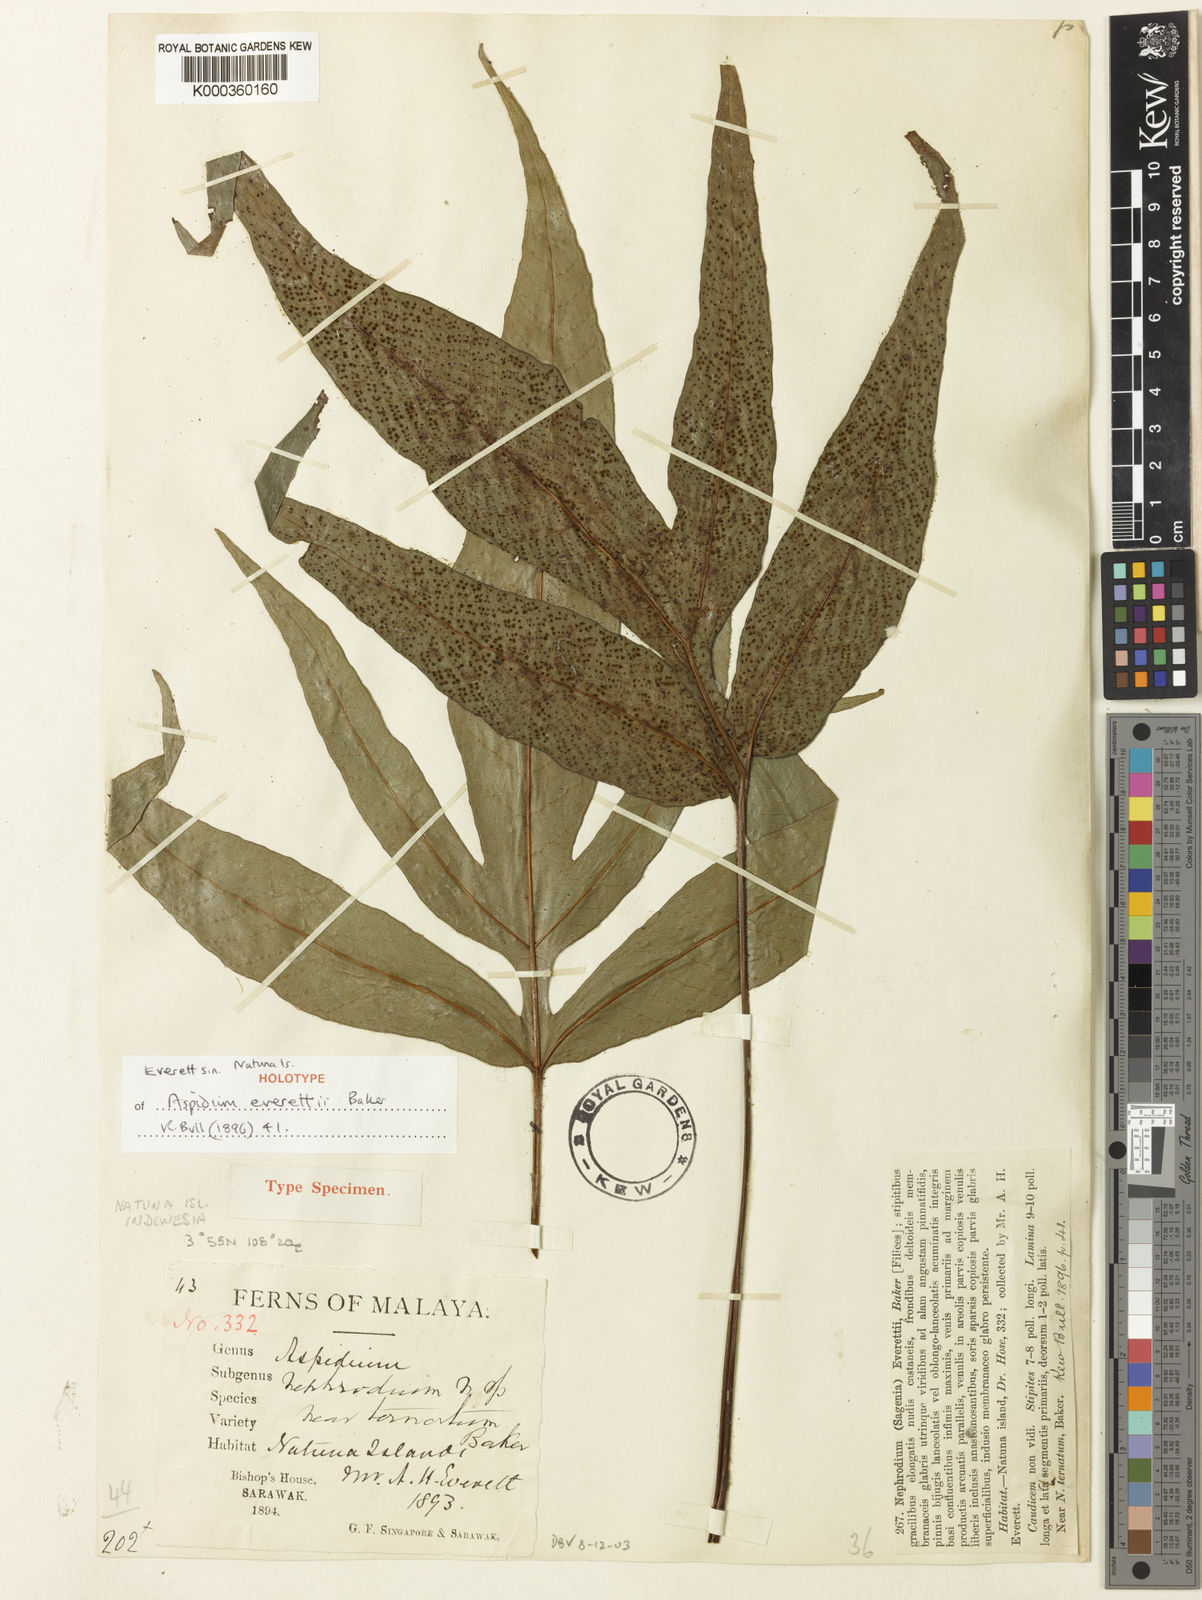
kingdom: Plantae
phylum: Tracheophyta
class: Polypodiopsida
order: Polypodiales
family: Tectariaceae
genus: Tectaria
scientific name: Tectaria tricuspis
